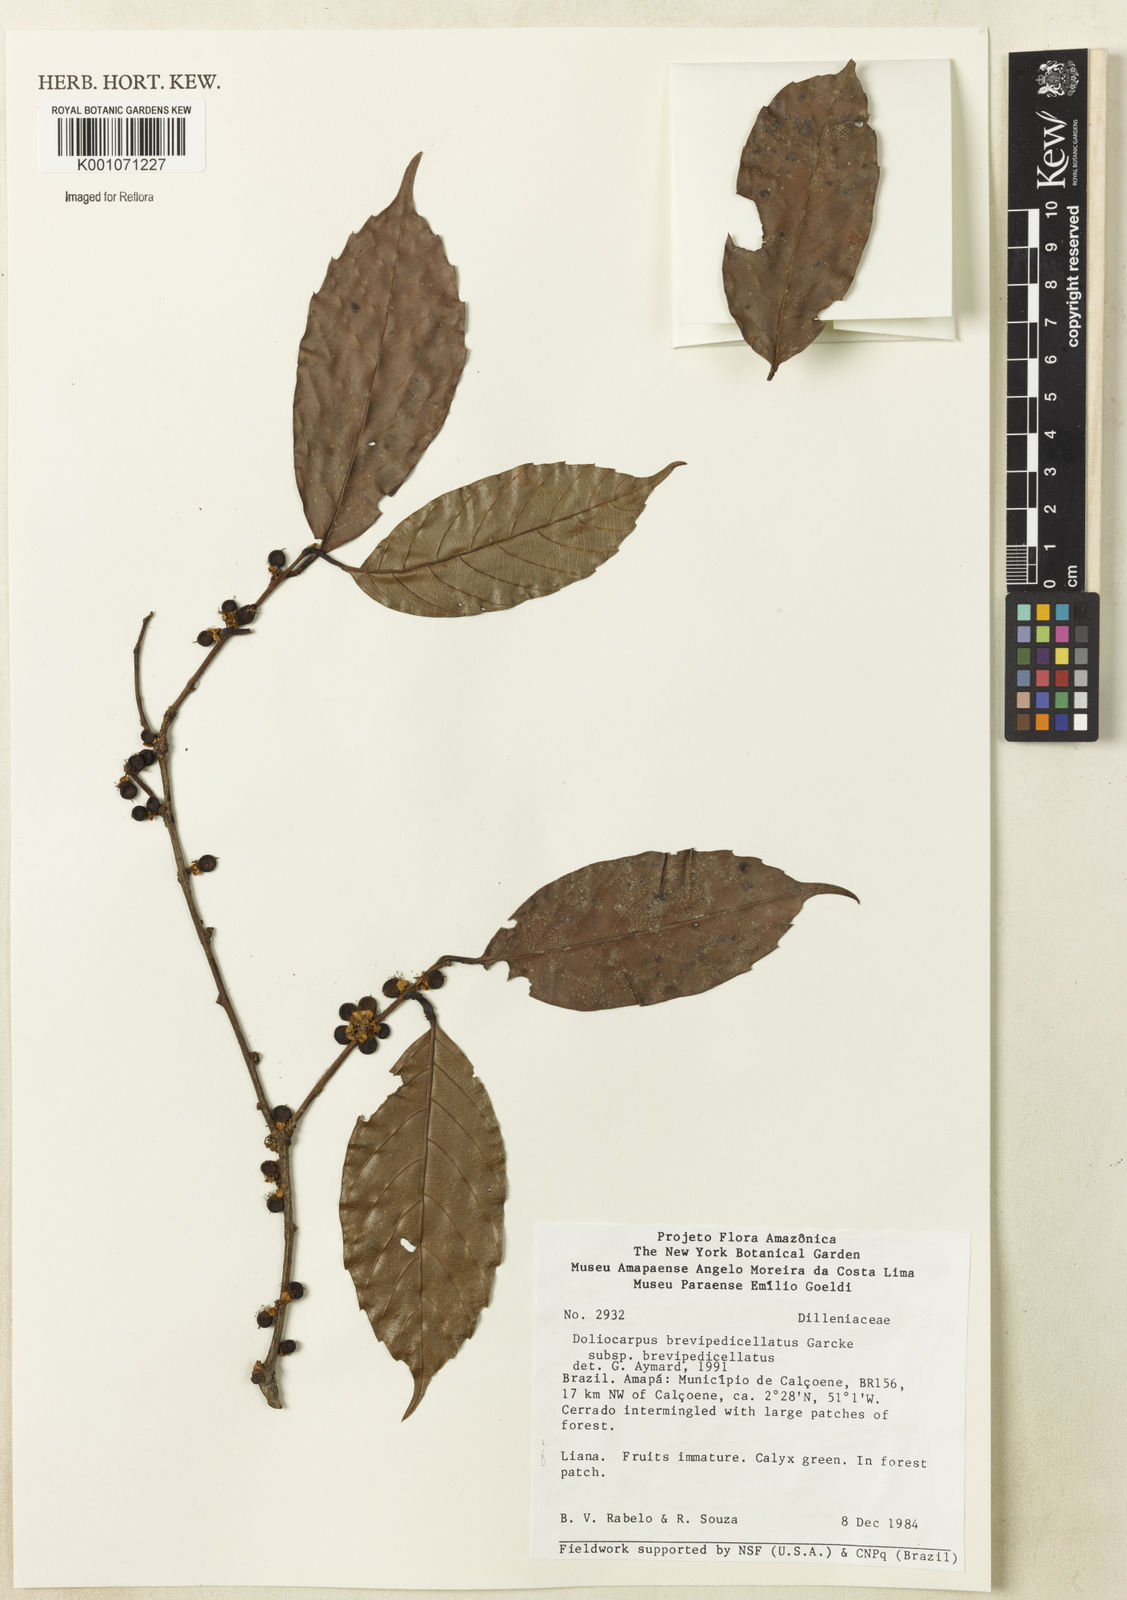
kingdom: Plantae
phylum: Tracheophyta
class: Magnoliopsida
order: Dilleniales
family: Dilleniaceae
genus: Doliocarpus
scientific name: Doliocarpus brevipedicellatus
